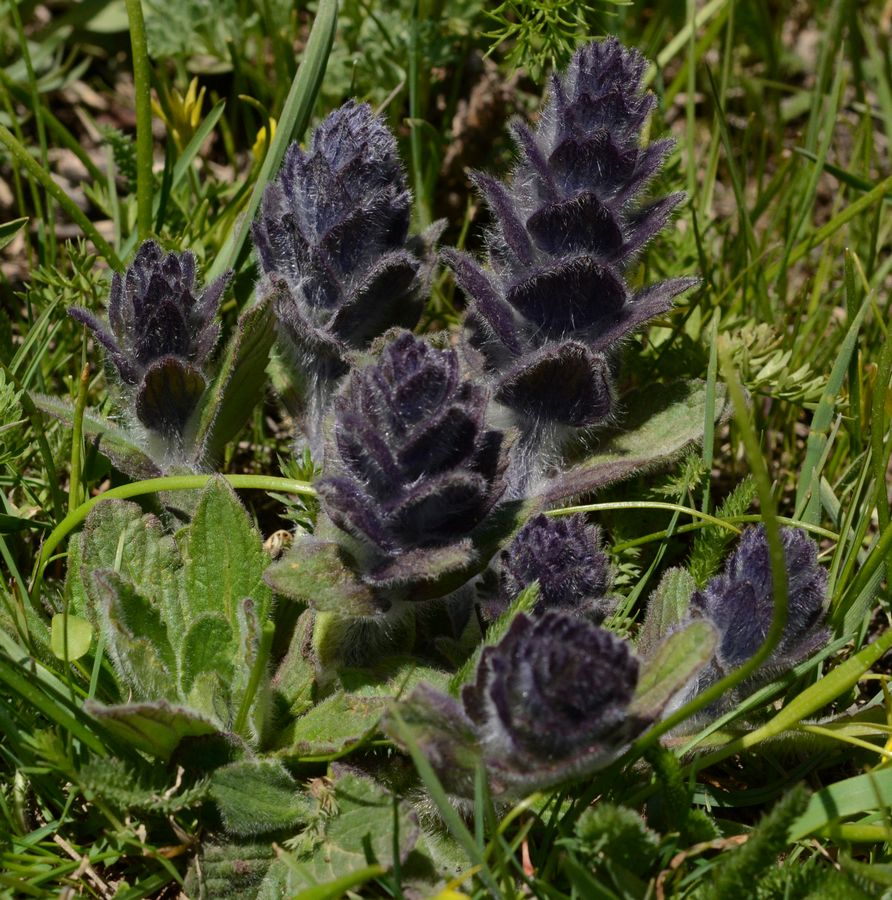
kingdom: Plantae
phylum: Tracheophyta
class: Magnoliopsida
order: Lamiales
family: Lamiaceae
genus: Ajuga
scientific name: Ajuga orientalis
